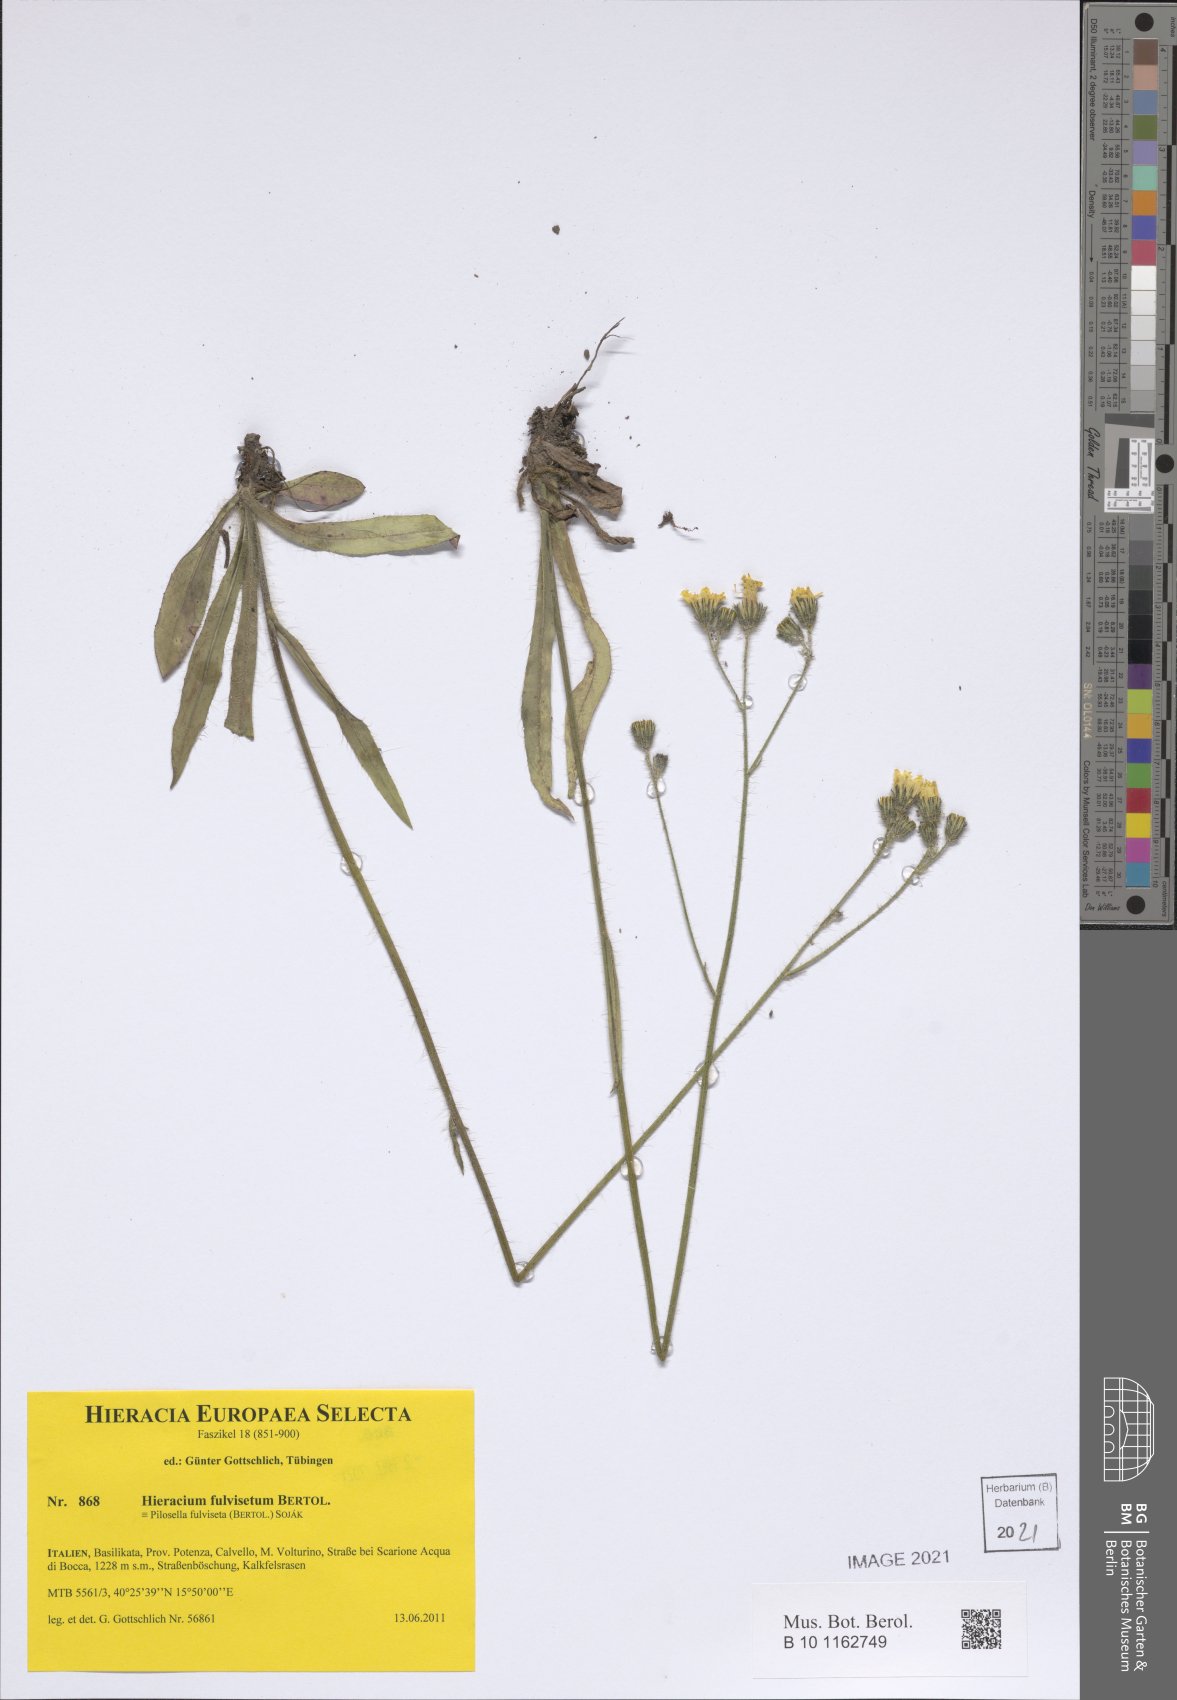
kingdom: Plantae
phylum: Tracheophyta
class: Magnoliopsida
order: Asterales
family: Asteraceae
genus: Pilosella
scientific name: Pilosella fulviseta
